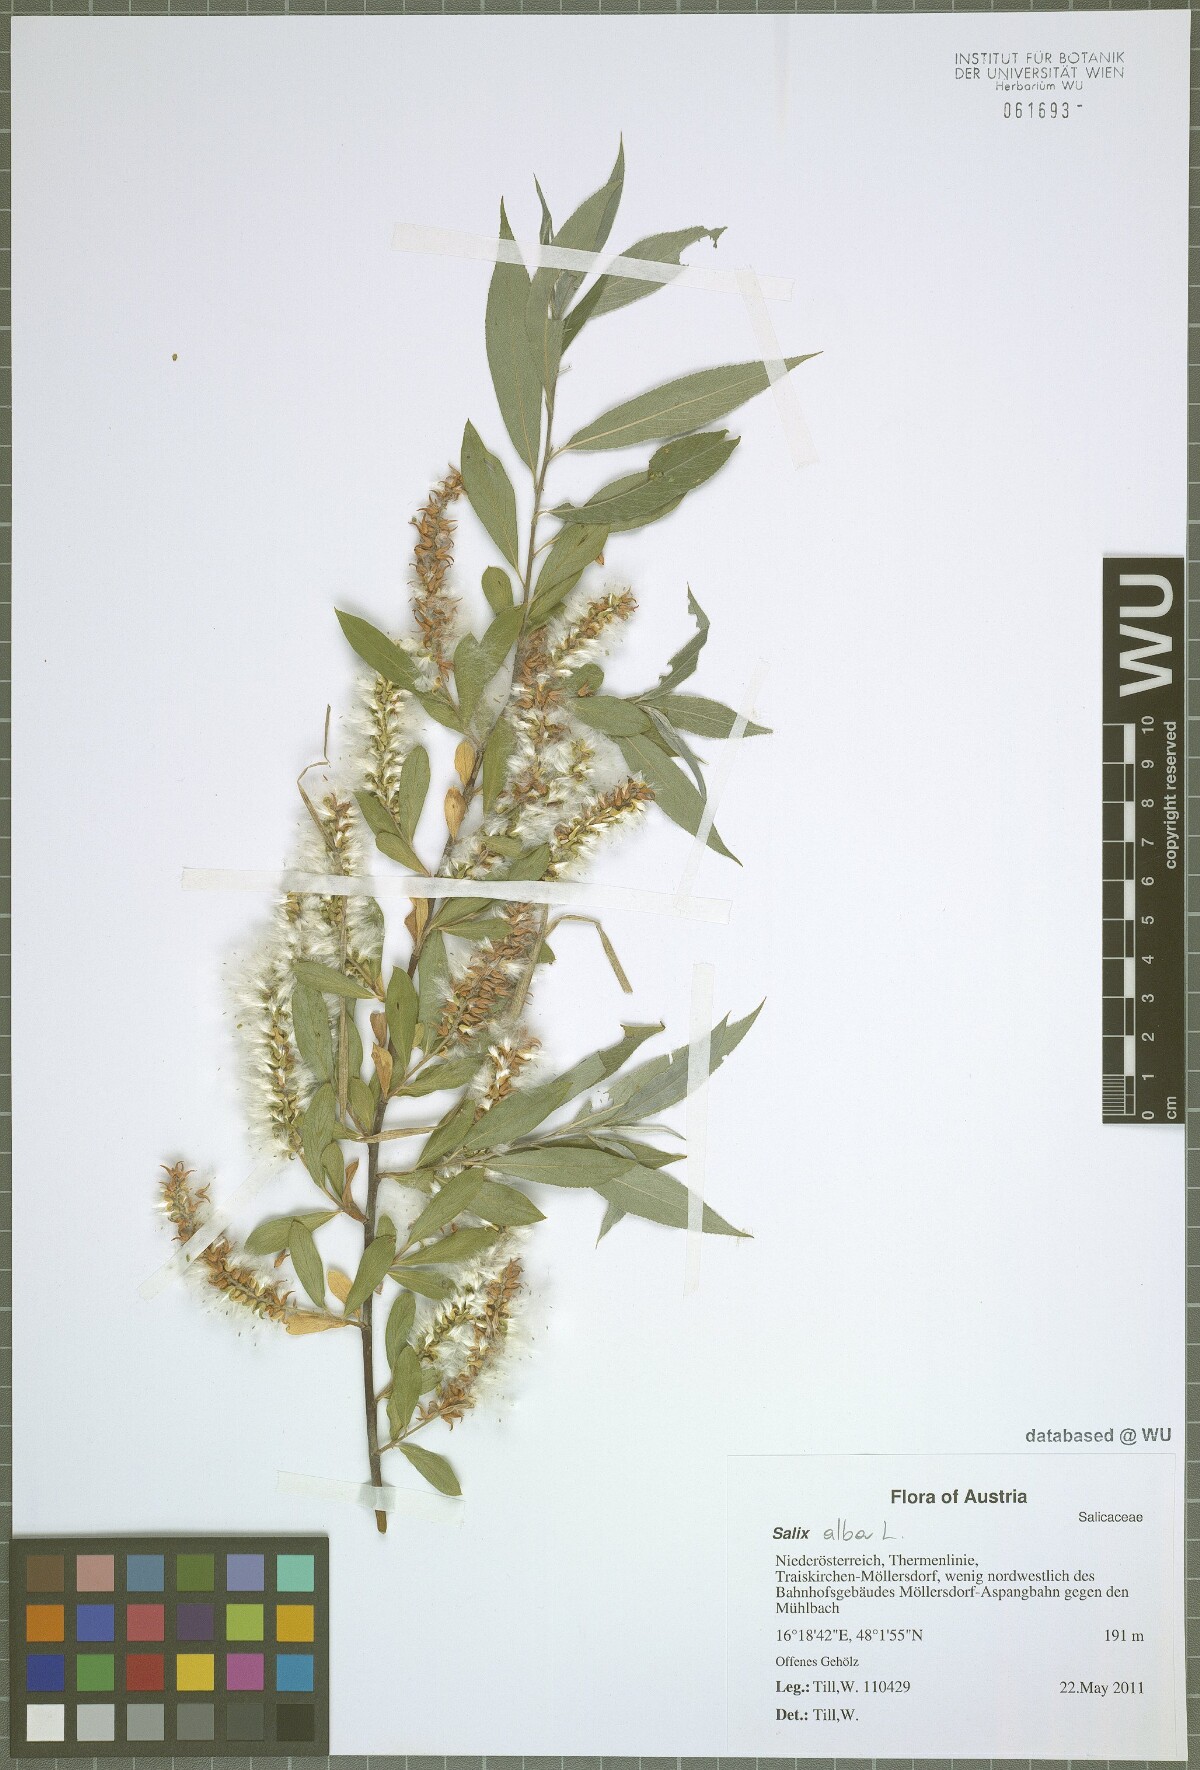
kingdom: Plantae
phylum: Tracheophyta
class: Magnoliopsida
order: Malpighiales
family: Salicaceae
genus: Salix
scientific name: Salix alba
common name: White willow
